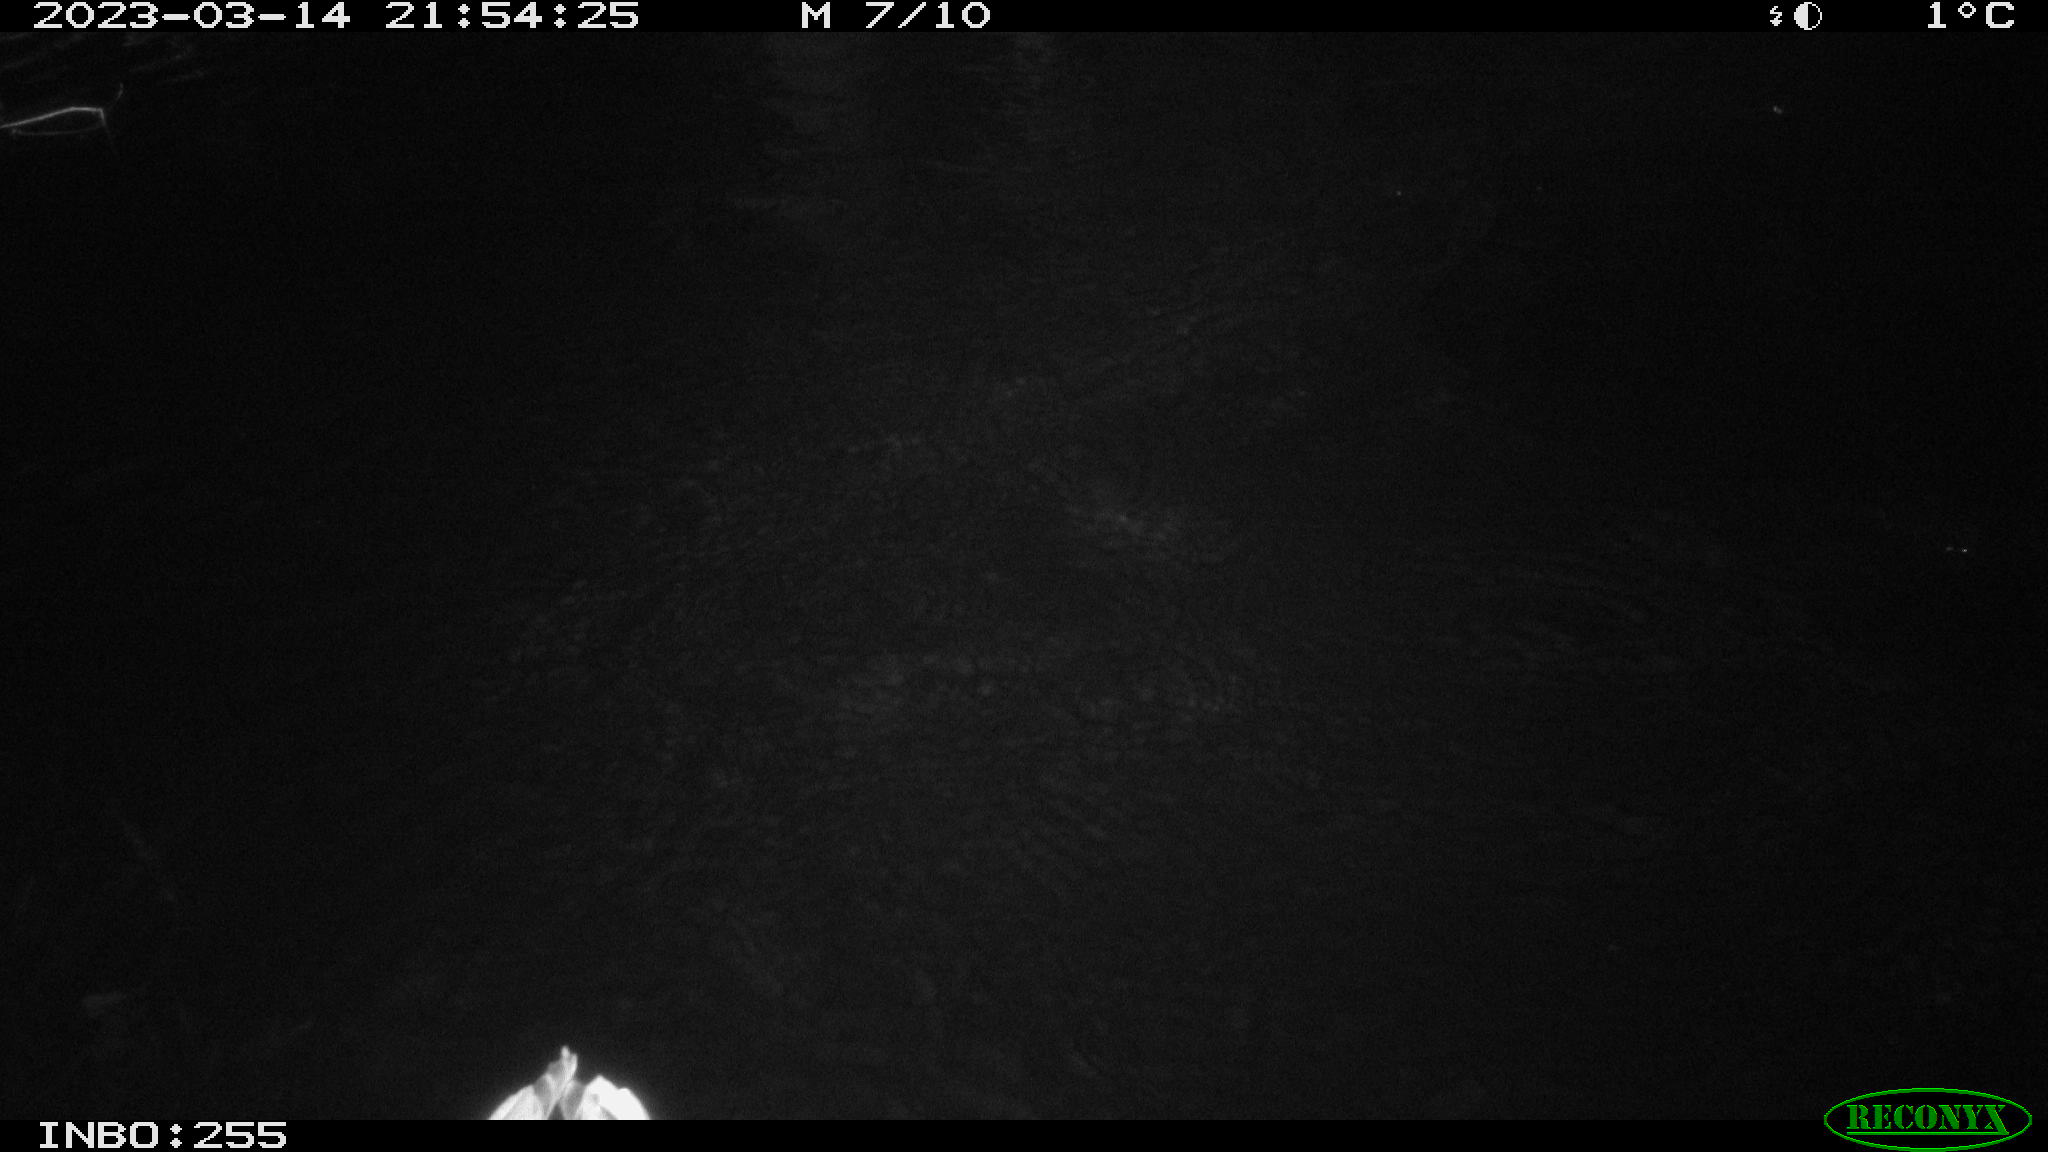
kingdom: Animalia
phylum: Chordata
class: Aves
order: Anseriformes
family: Anatidae
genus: Anas
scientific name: Anas
